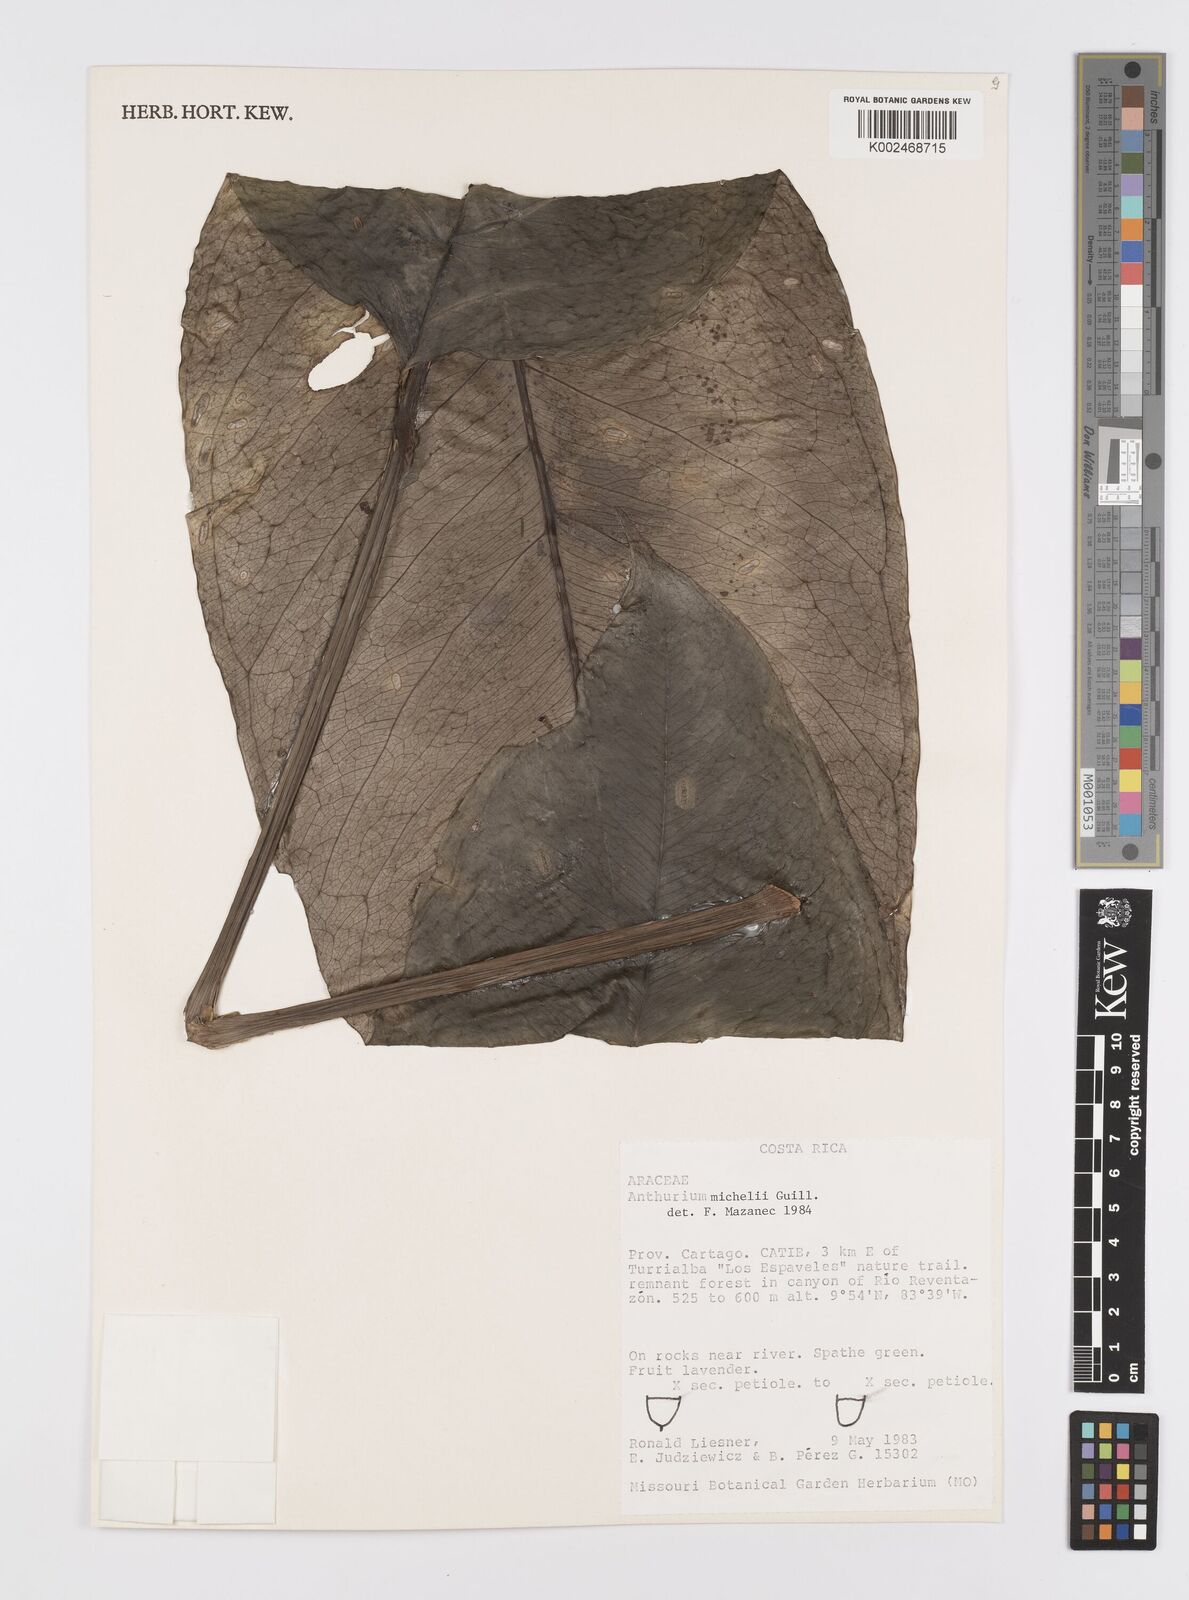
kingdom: Plantae
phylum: Tracheophyta
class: Liliopsida
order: Alismatales
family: Araceae
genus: Anthurium
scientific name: Anthurium michelii
